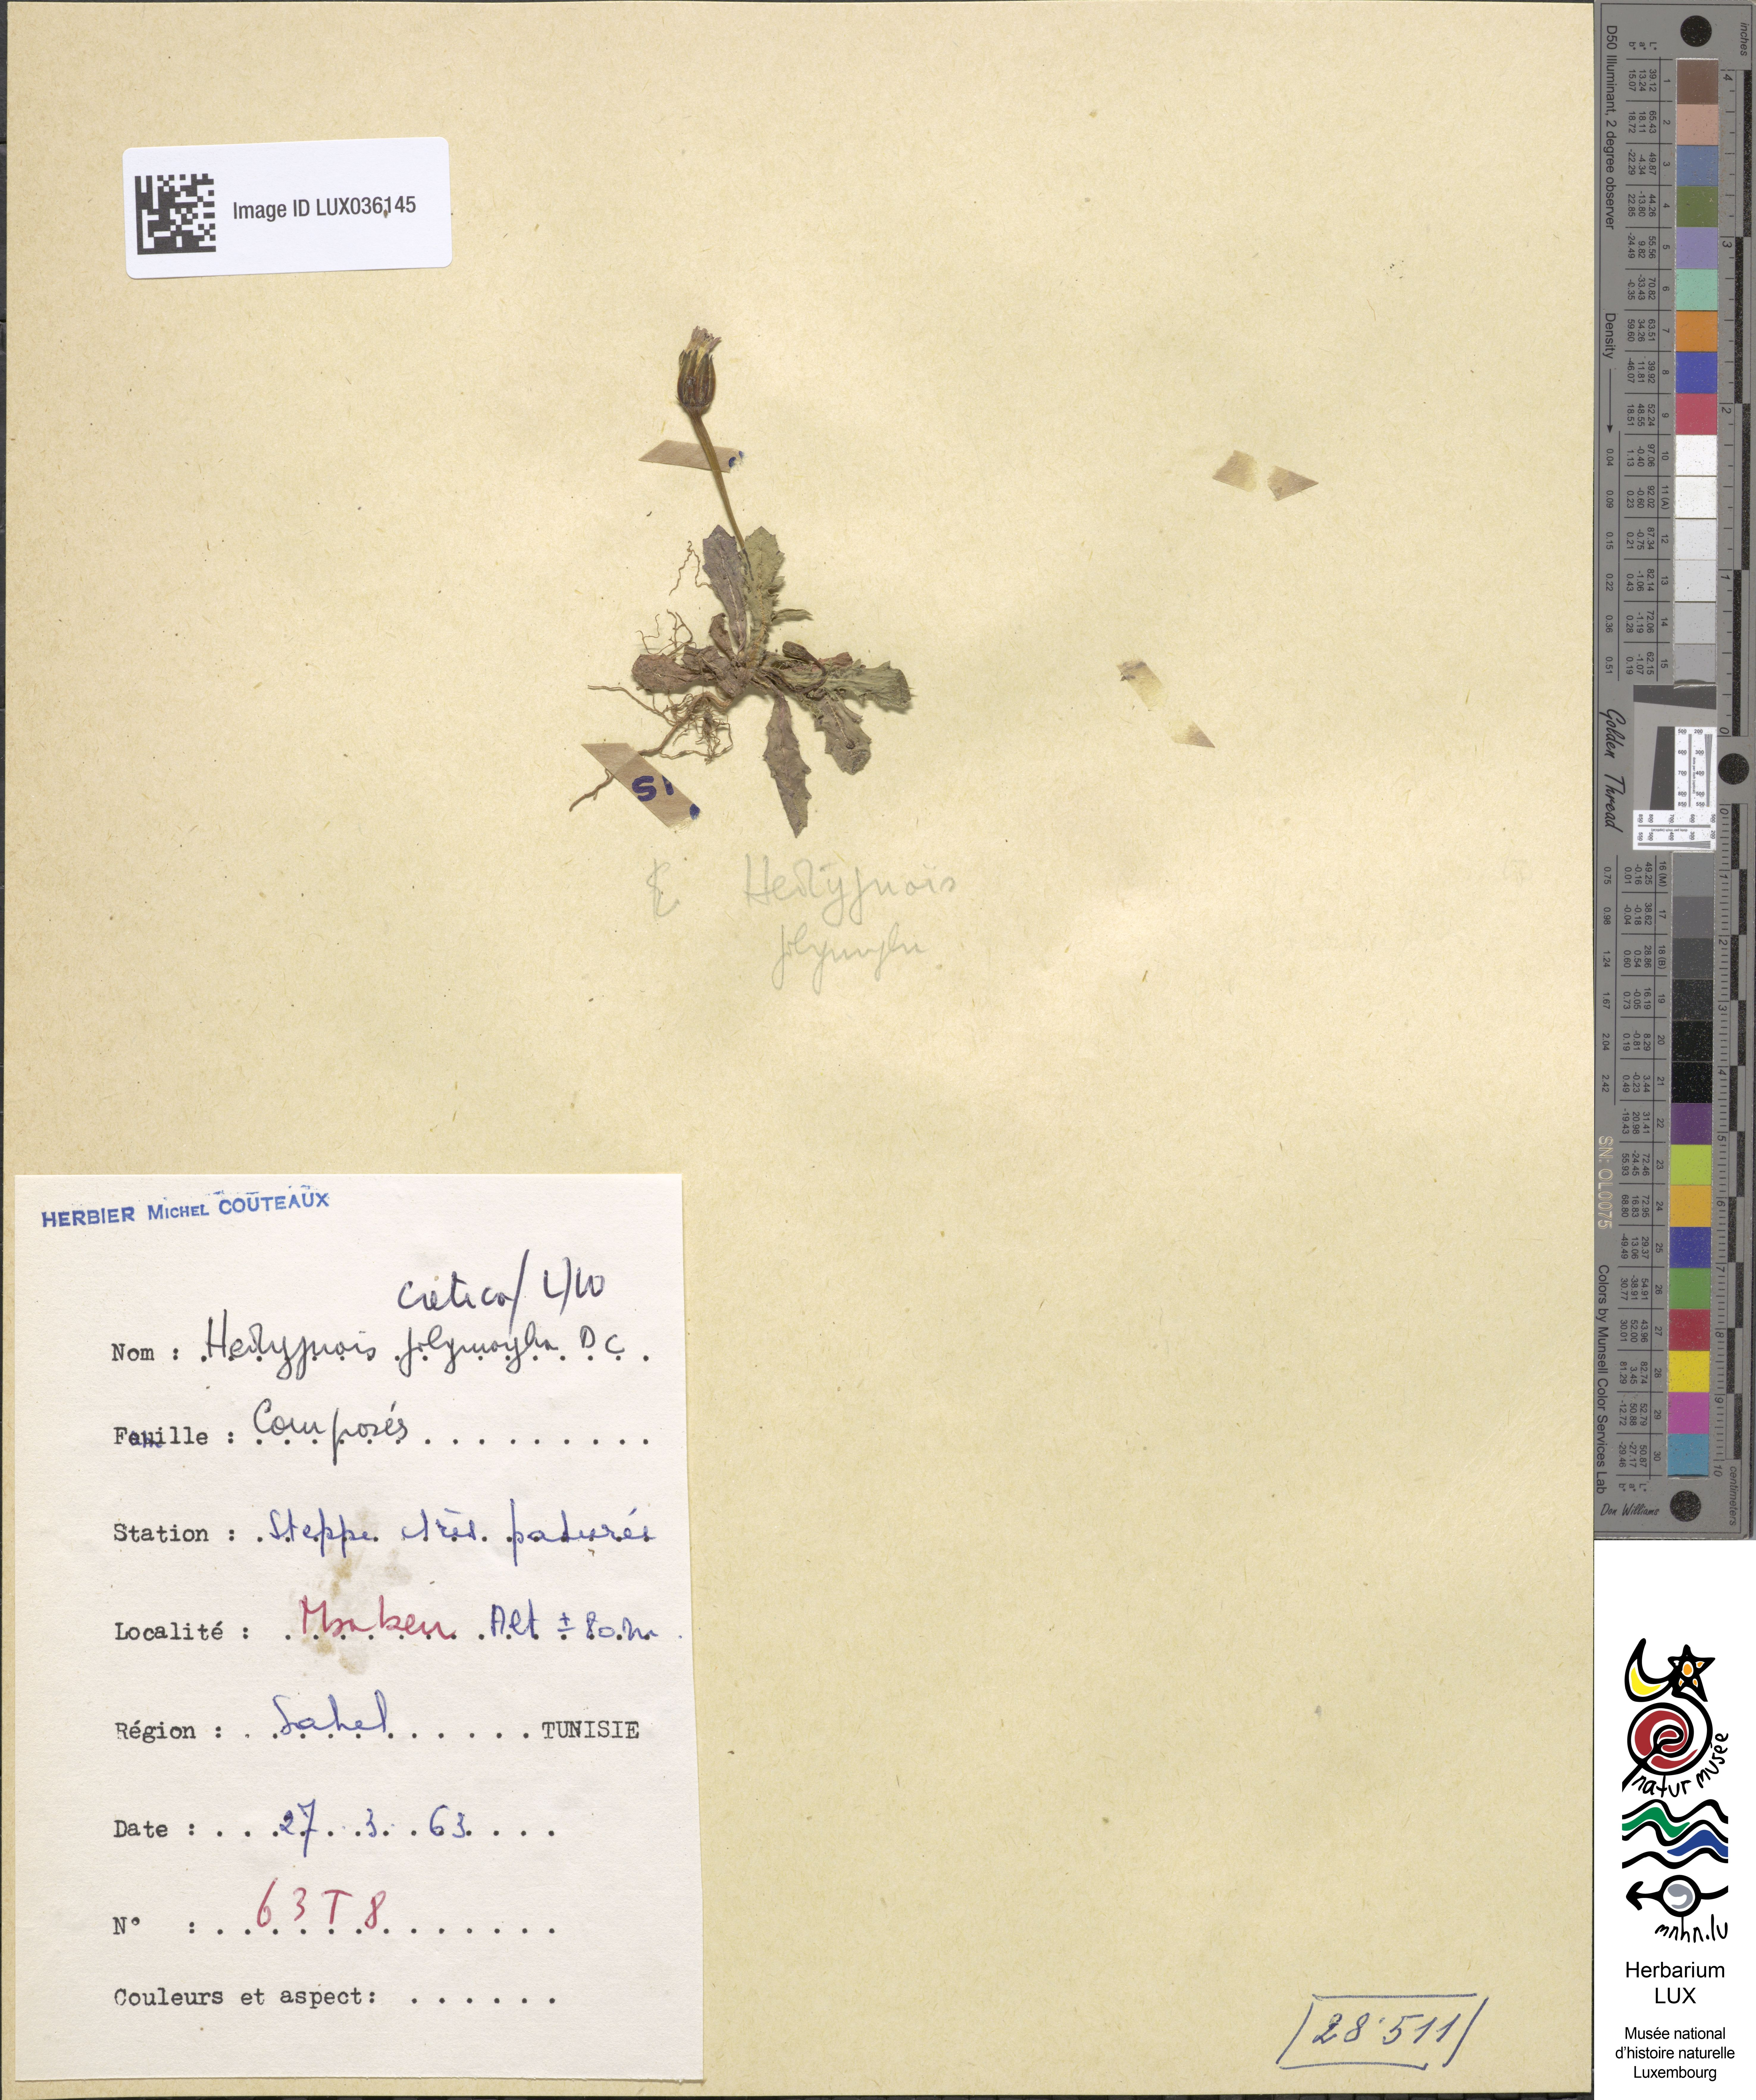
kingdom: Plantae
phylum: Tracheophyta
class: Magnoliopsida
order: Asterales
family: Asteraceae
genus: Hedypnois
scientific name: Hedypnois cretica
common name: Scaly hawkbit
